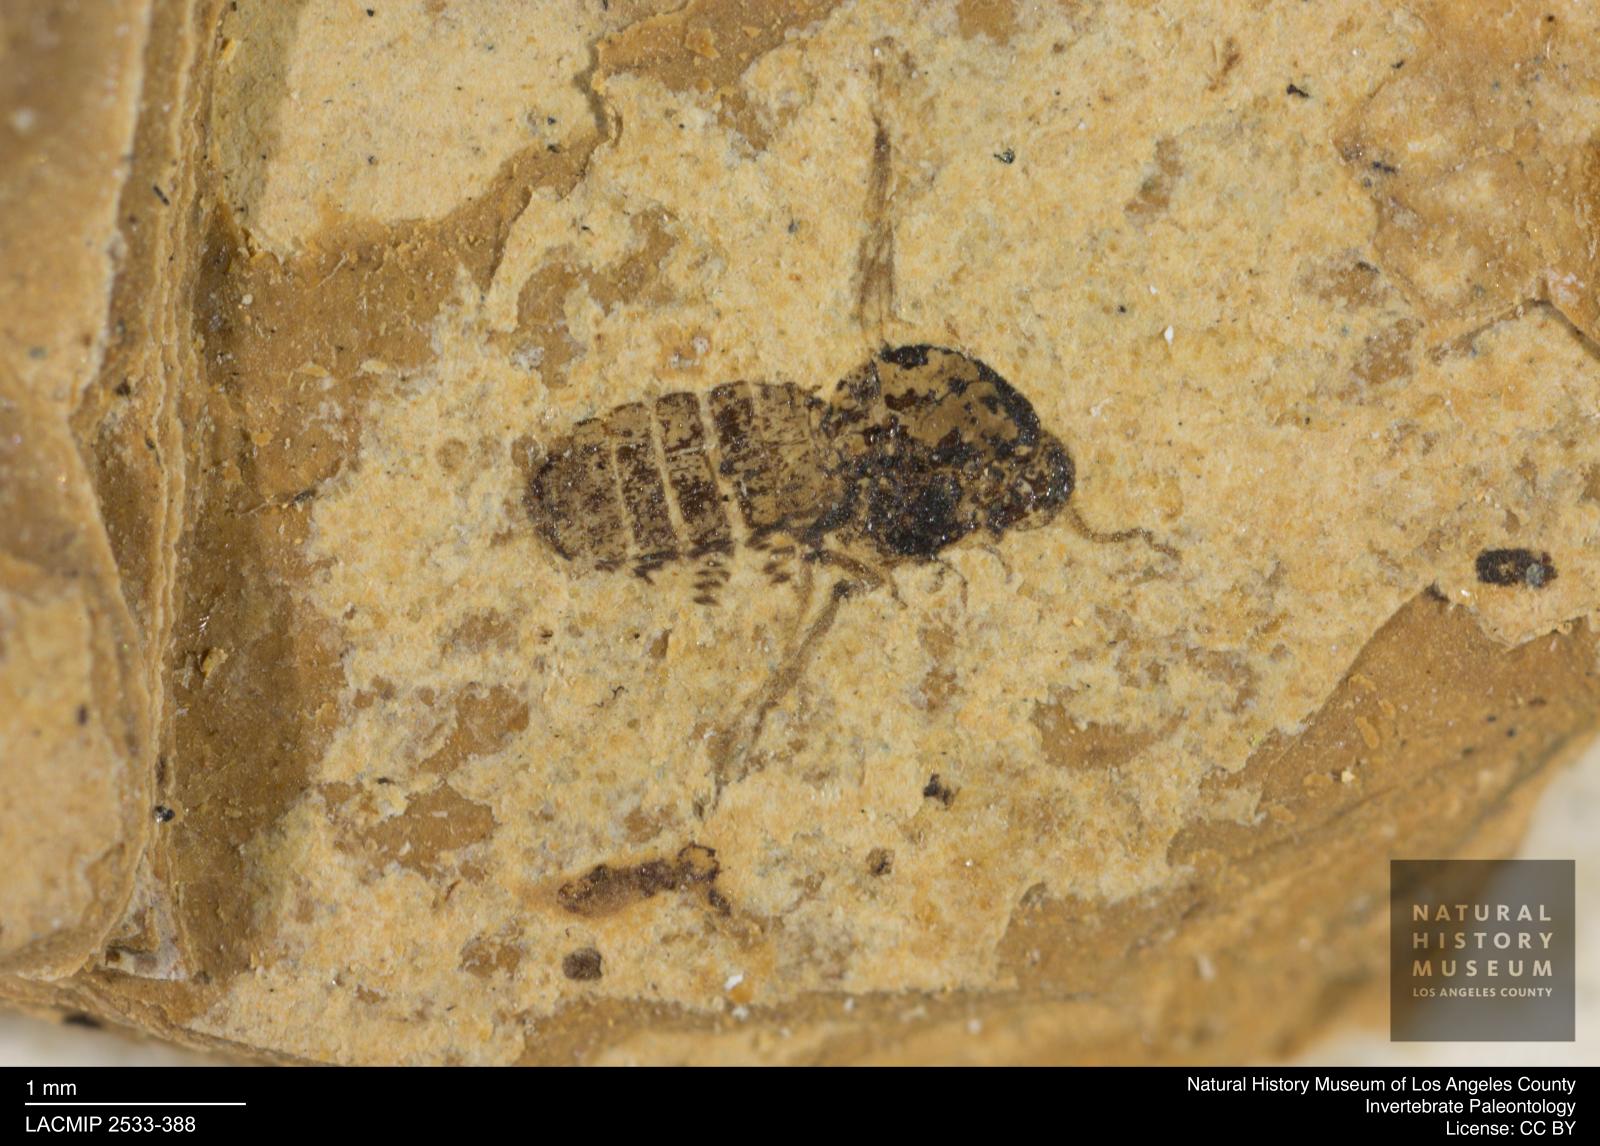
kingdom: Animalia
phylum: Arthropoda
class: Insecta
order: Diptera
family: Ceratopogonidae
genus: Culicoides
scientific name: Culicoides obscuratus
